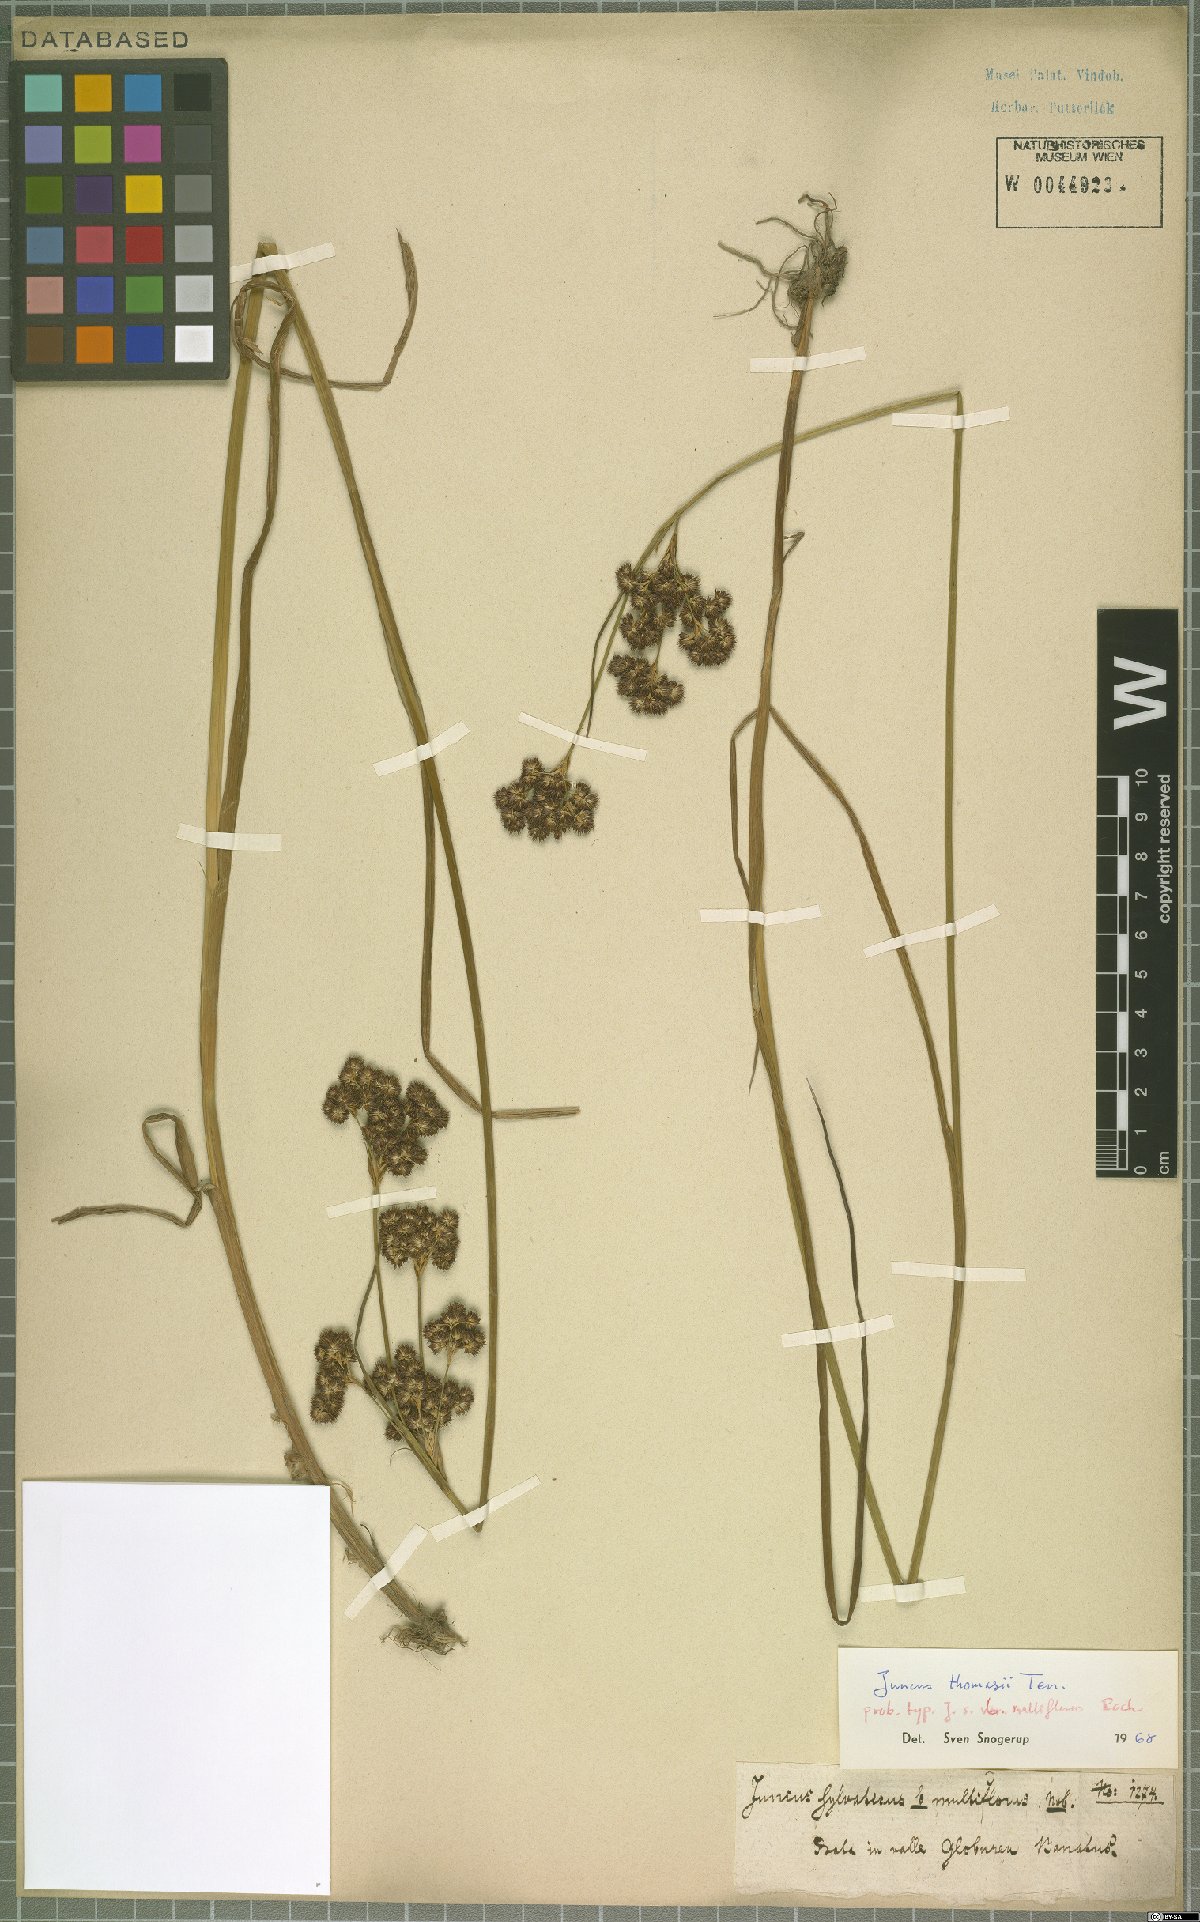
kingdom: Plantae
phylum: Tracheophyta
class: Liliopsida
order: Poales
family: Juncaceae
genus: Juncus
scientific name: Juncus thomasii
